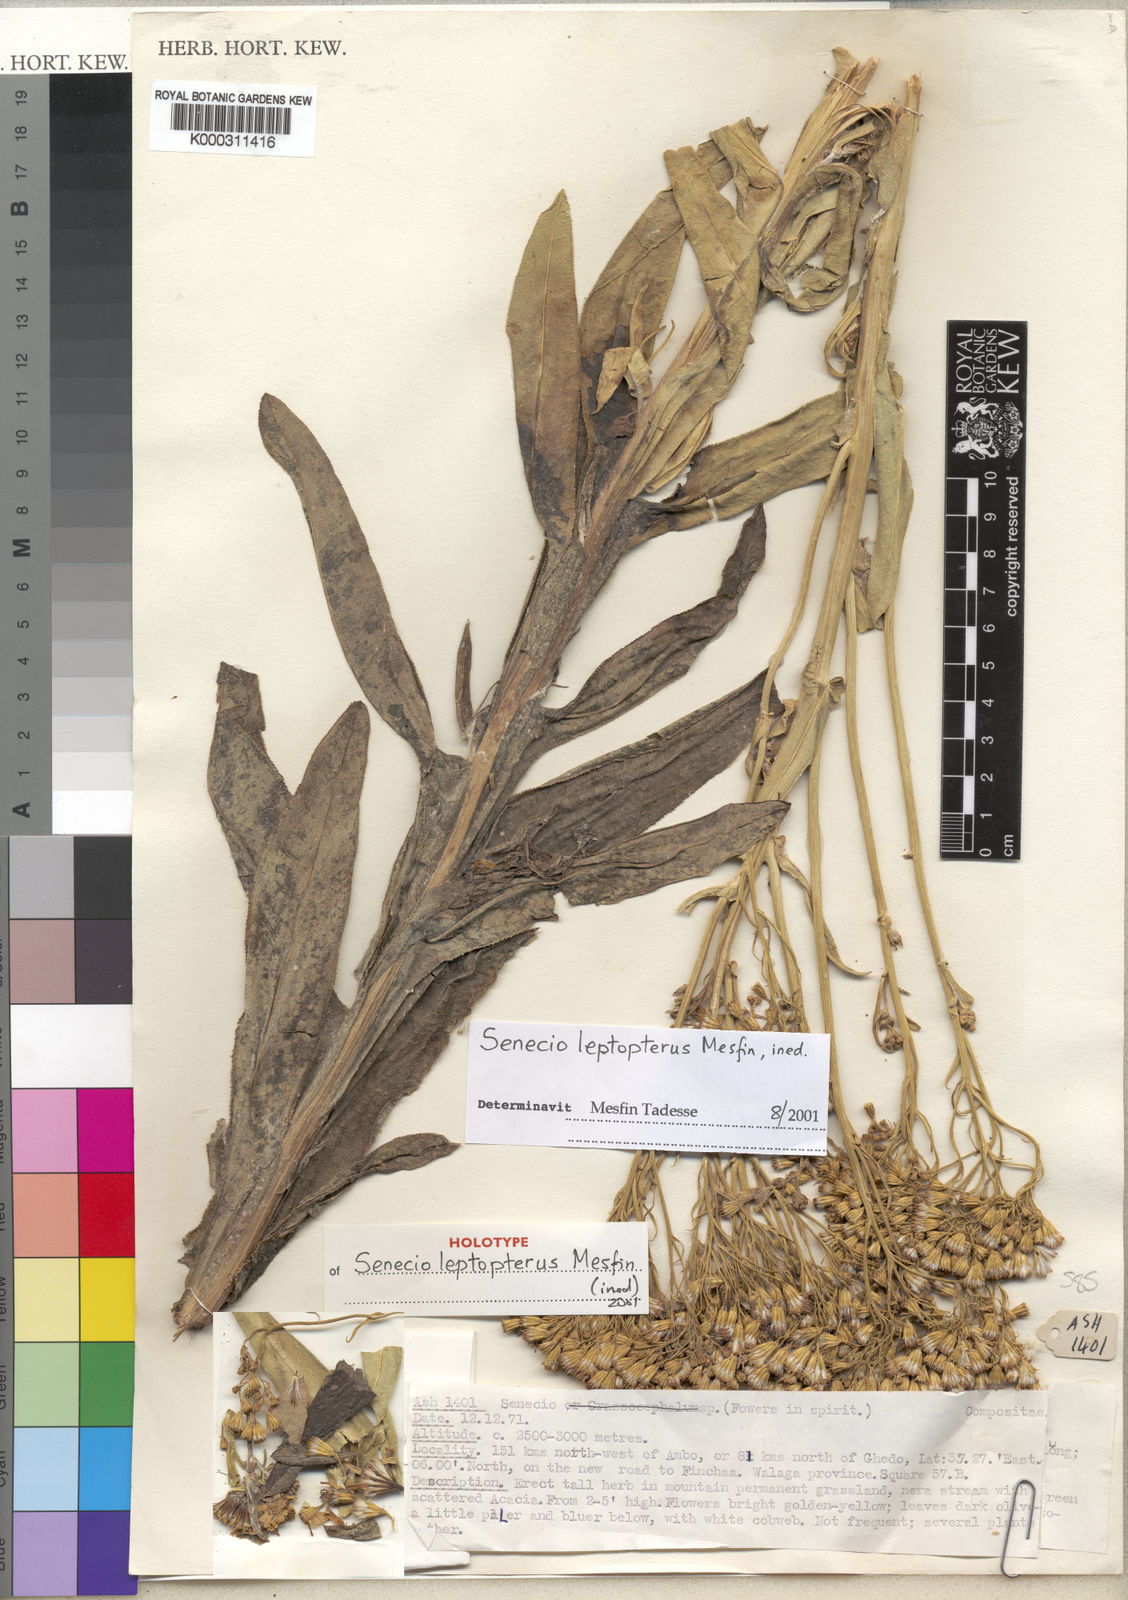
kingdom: Plantae
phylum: Tracheophyta
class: Magnoliopsida
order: Asterales
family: Asteraceae
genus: Senecio
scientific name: Senecio leptopterus
